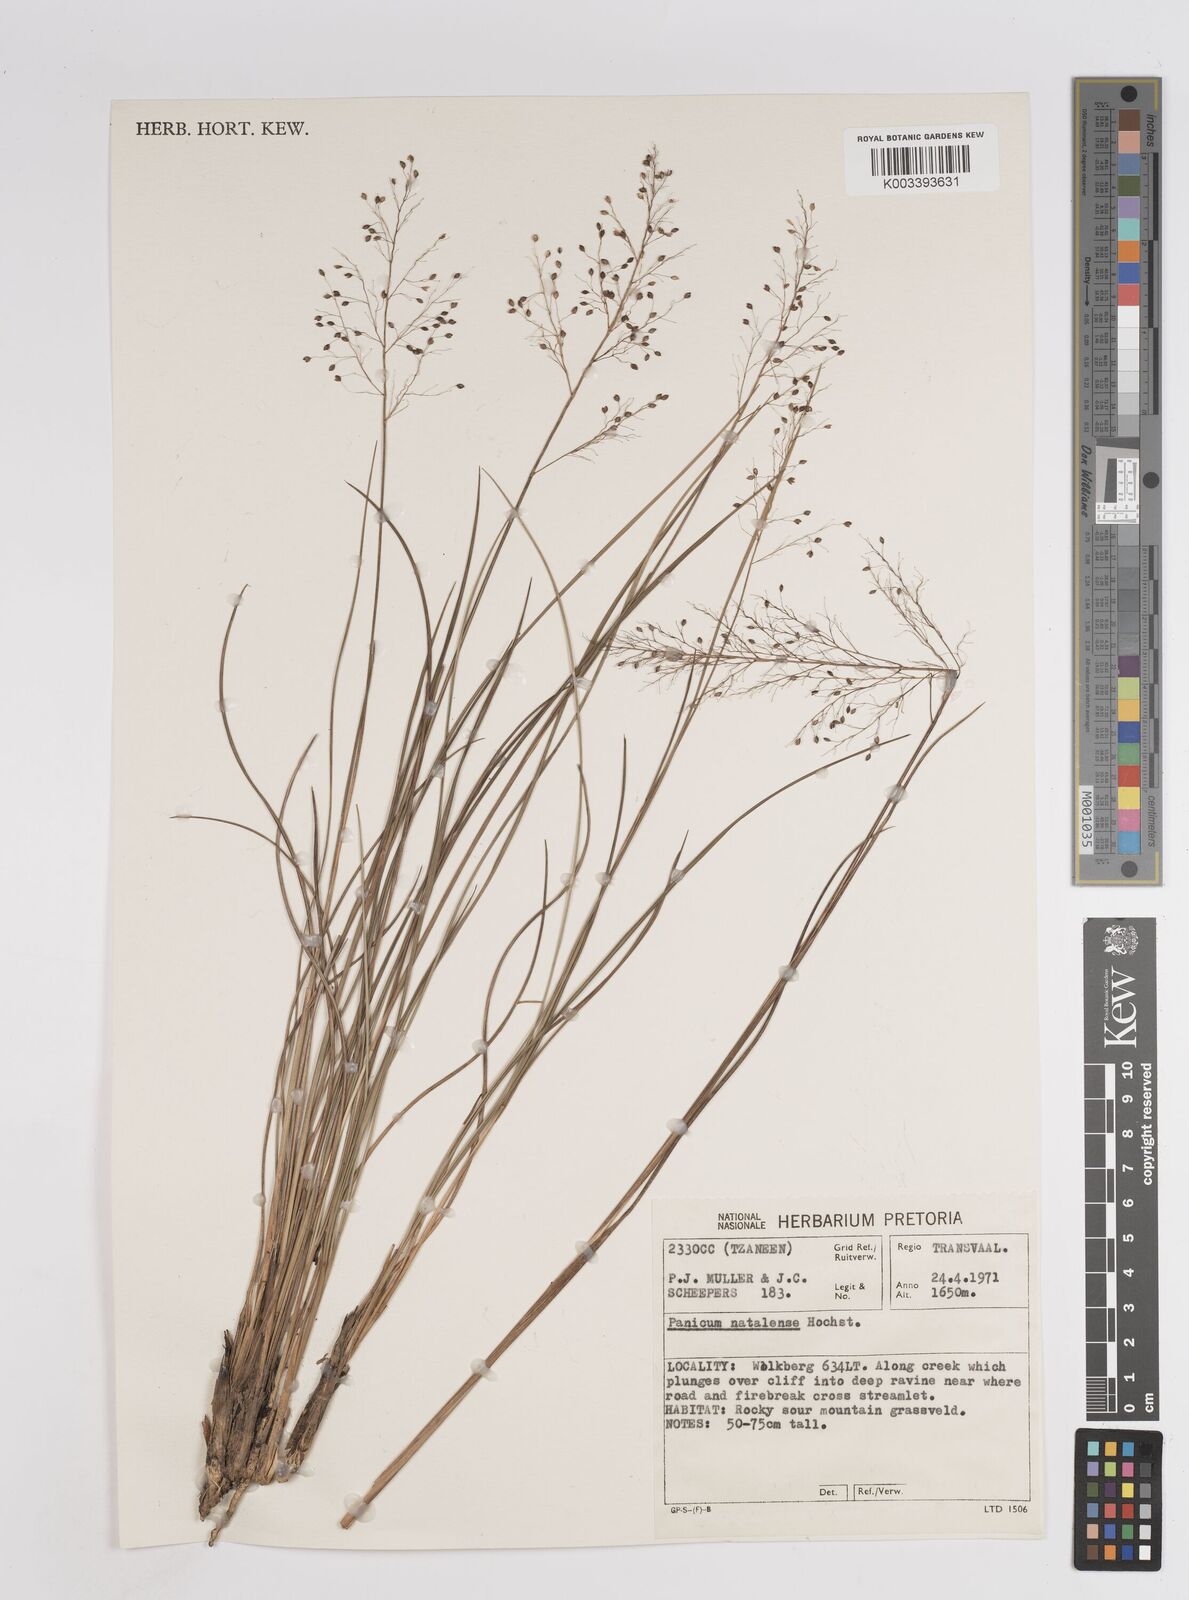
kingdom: Plantae
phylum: Tracheophyta
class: Liliopsida
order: Poales
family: Poaceae
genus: Trichanthecium
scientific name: Trichanthecium natalense
